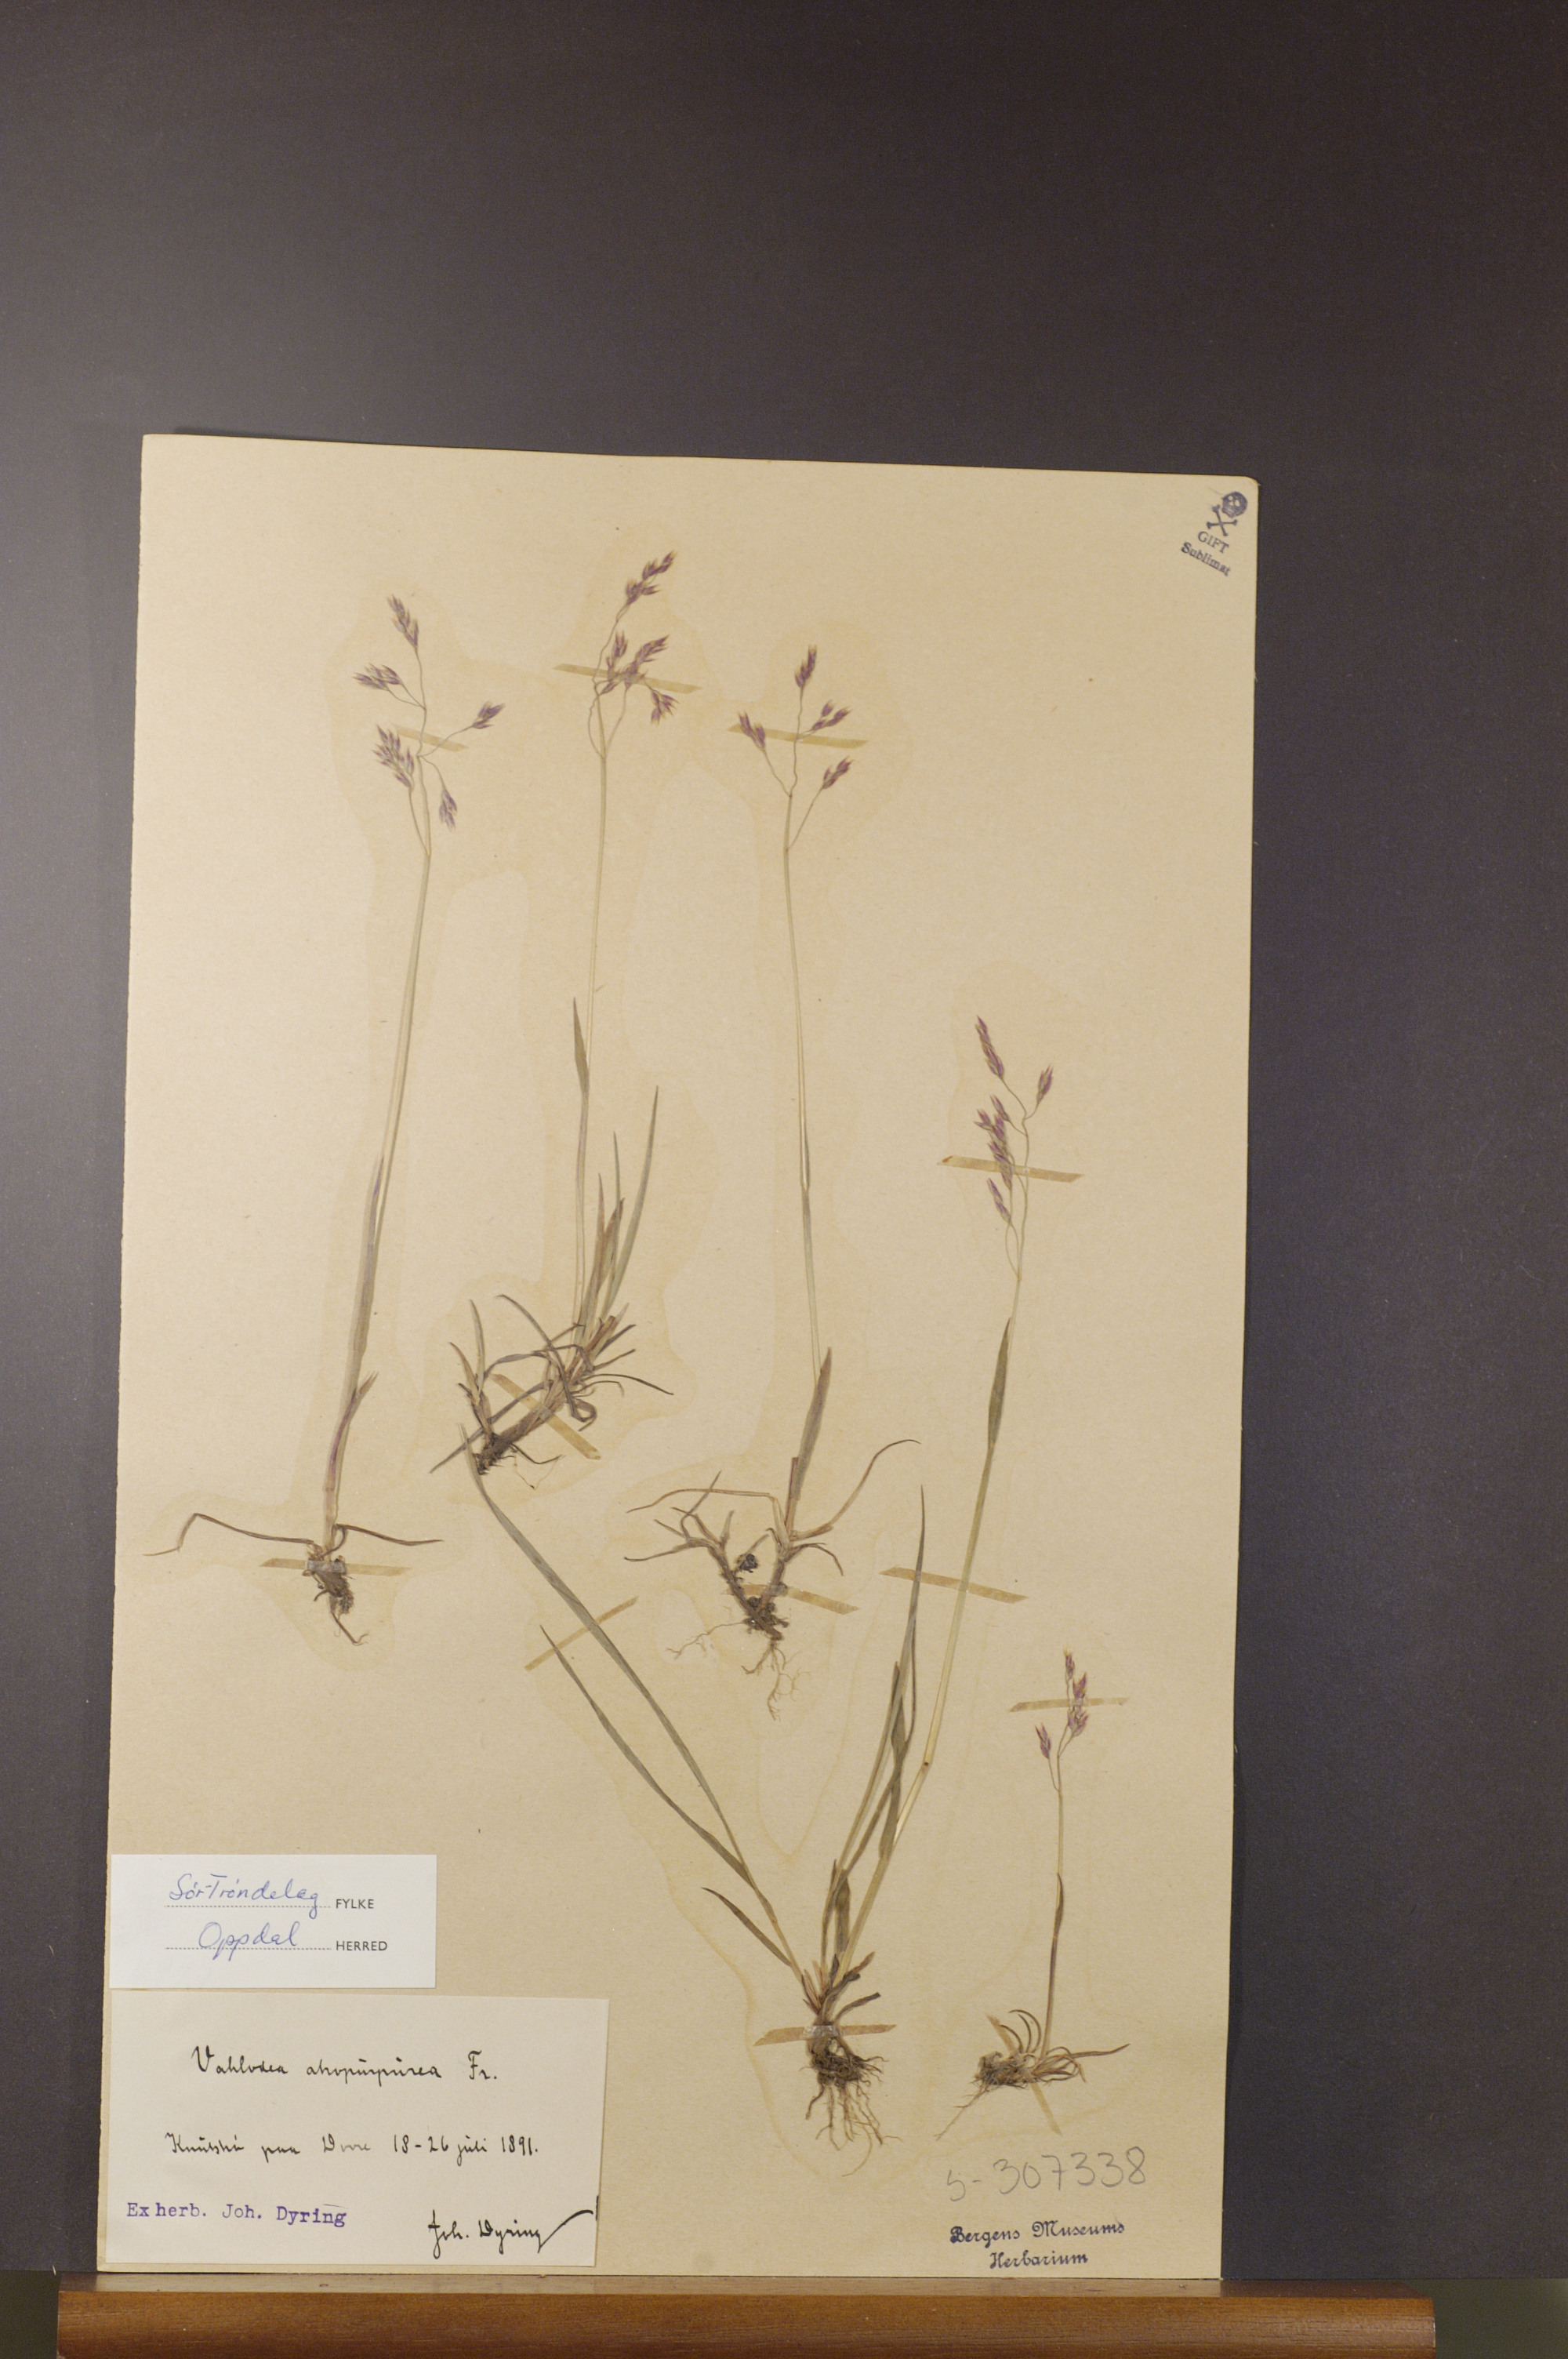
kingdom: Plantae
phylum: Tracheophyta
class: Liliopsida
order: Poales
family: Poaceae
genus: Vahlodea
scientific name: Vahlodea atropurpurea
